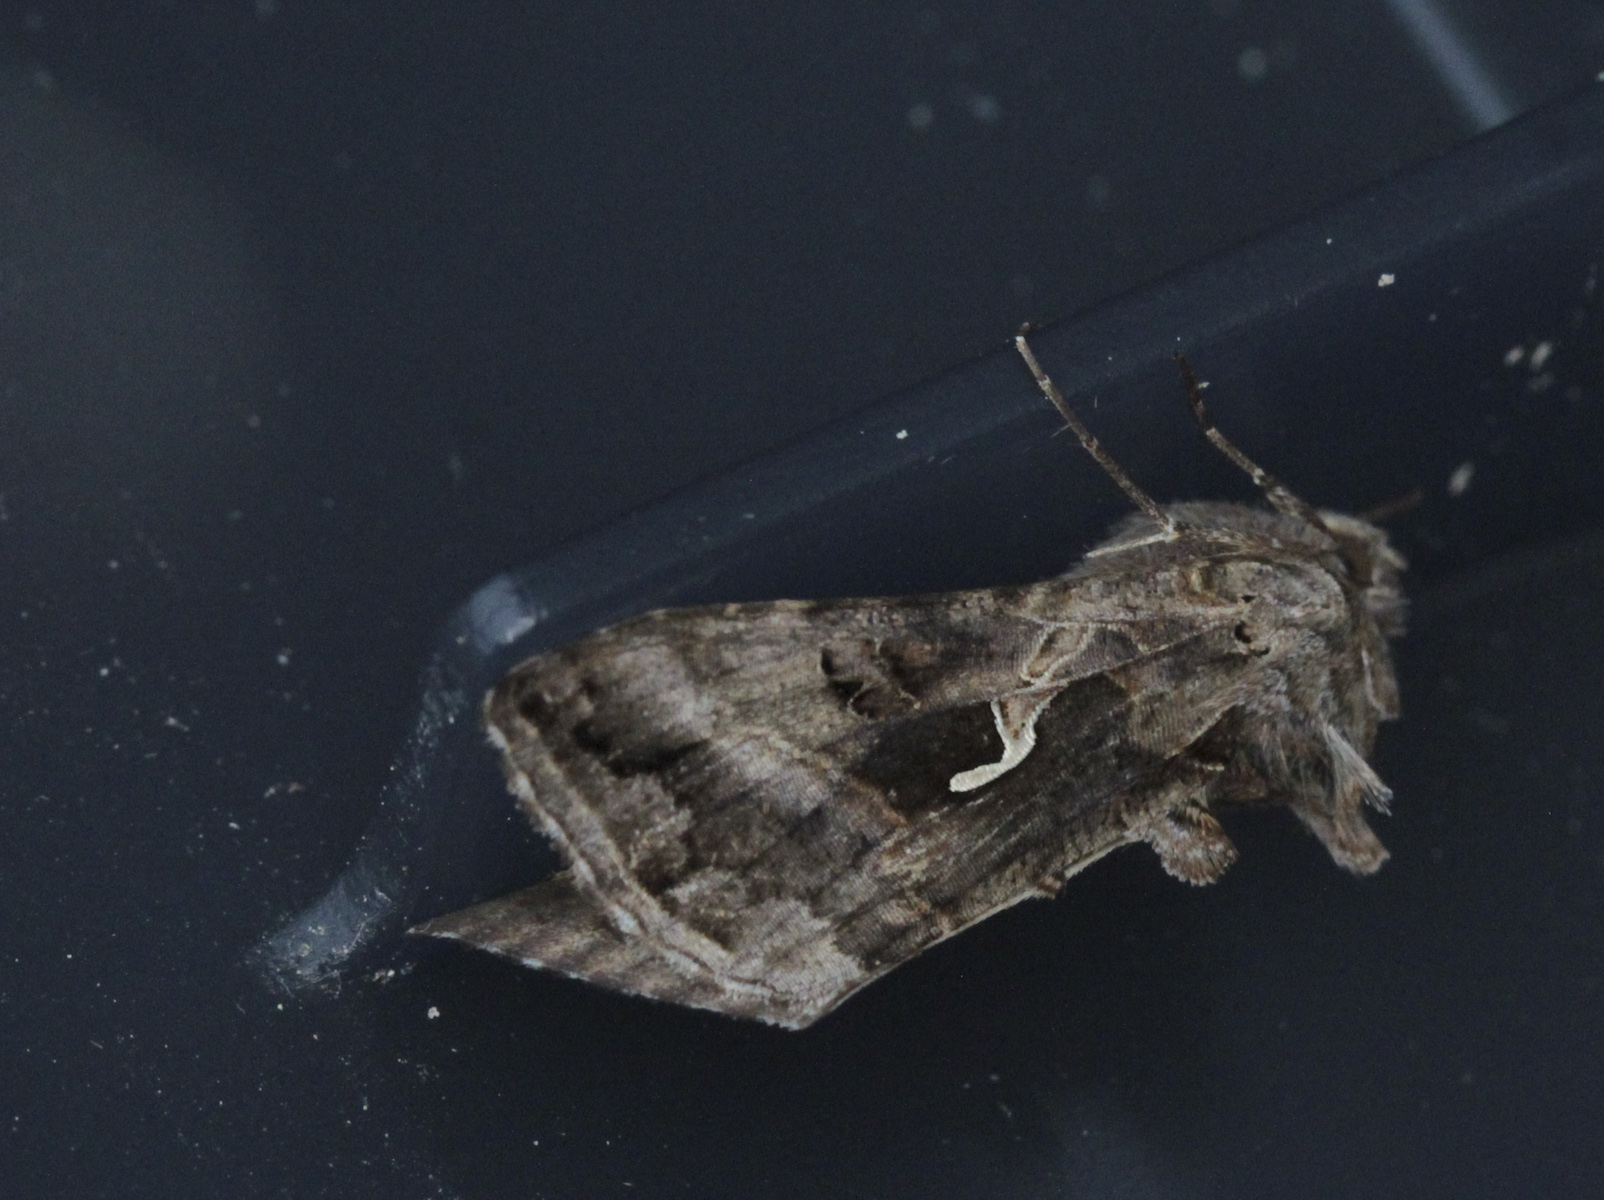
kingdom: Animalia
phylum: Arthropoda
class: Insecta
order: Lepidoptera
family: Noctuidae
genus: Autographa
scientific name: Autographa gamma
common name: Silver y
